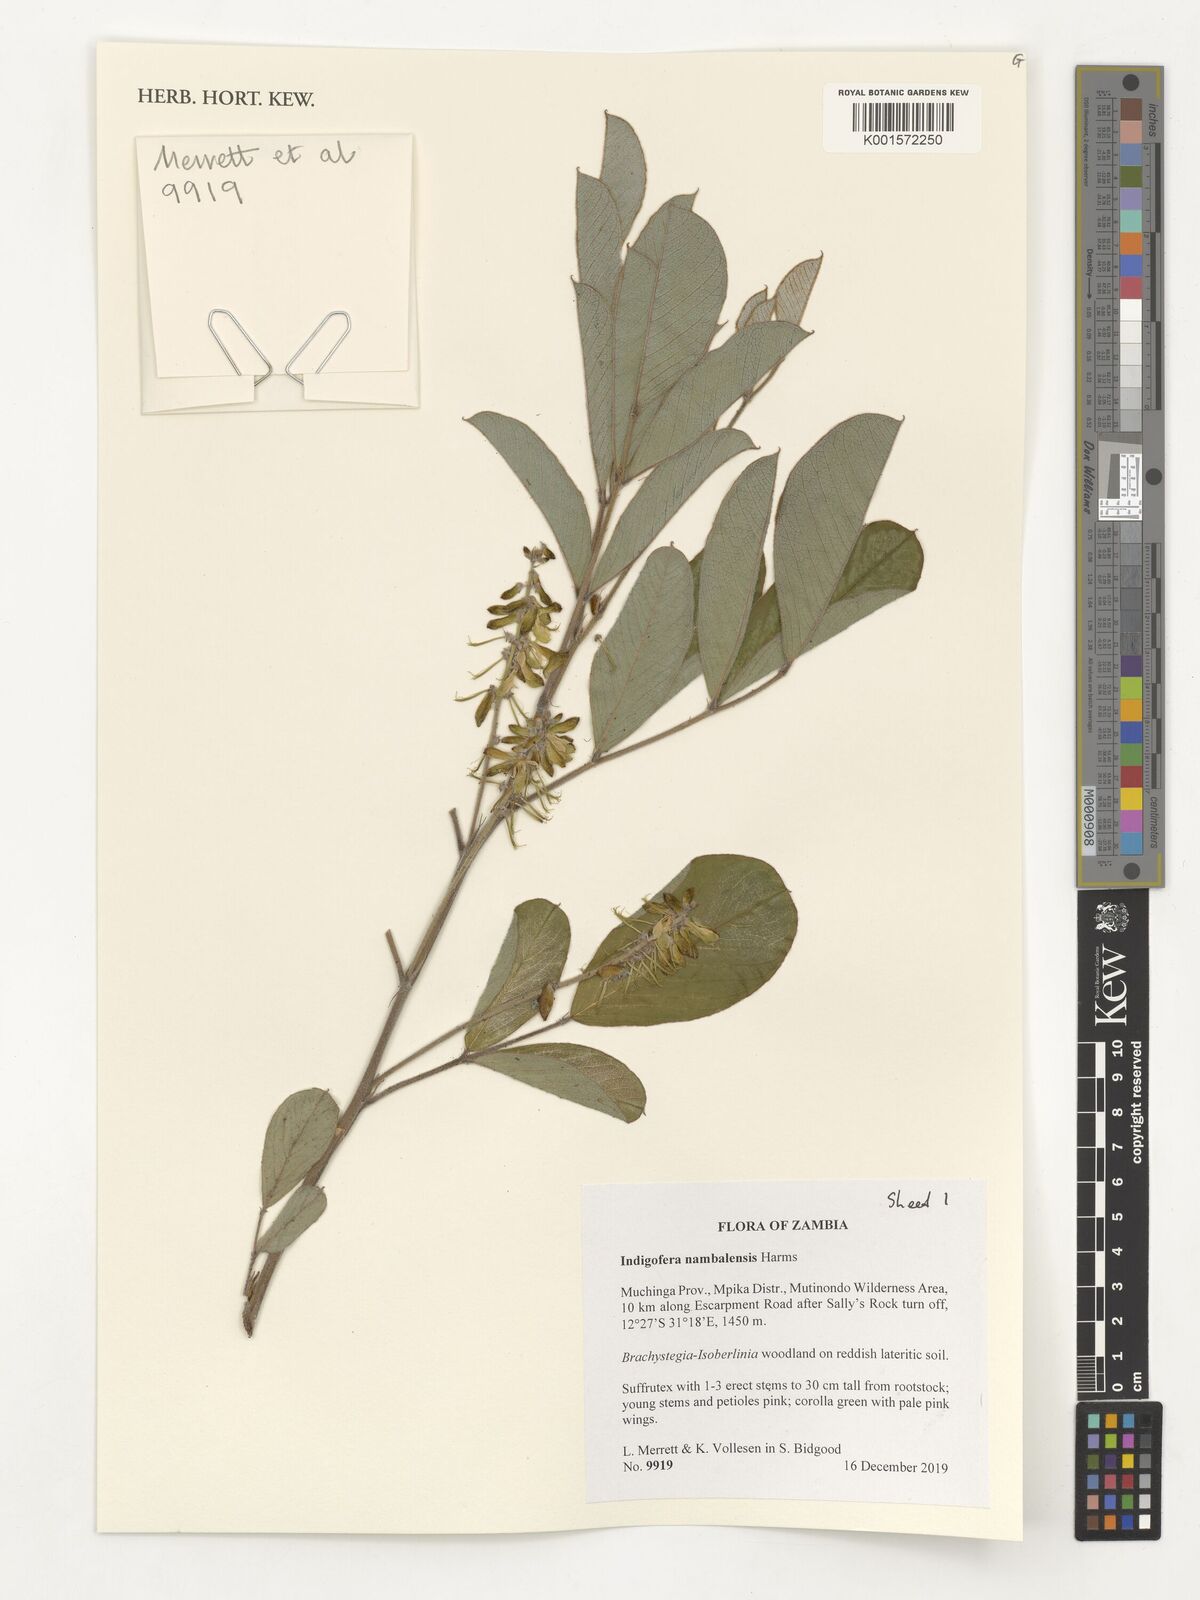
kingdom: Plantae
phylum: Tracheophyta
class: Magnoliopsida
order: Fabales
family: Fabaceae
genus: Indigofera
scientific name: Indigofera nambalensis
